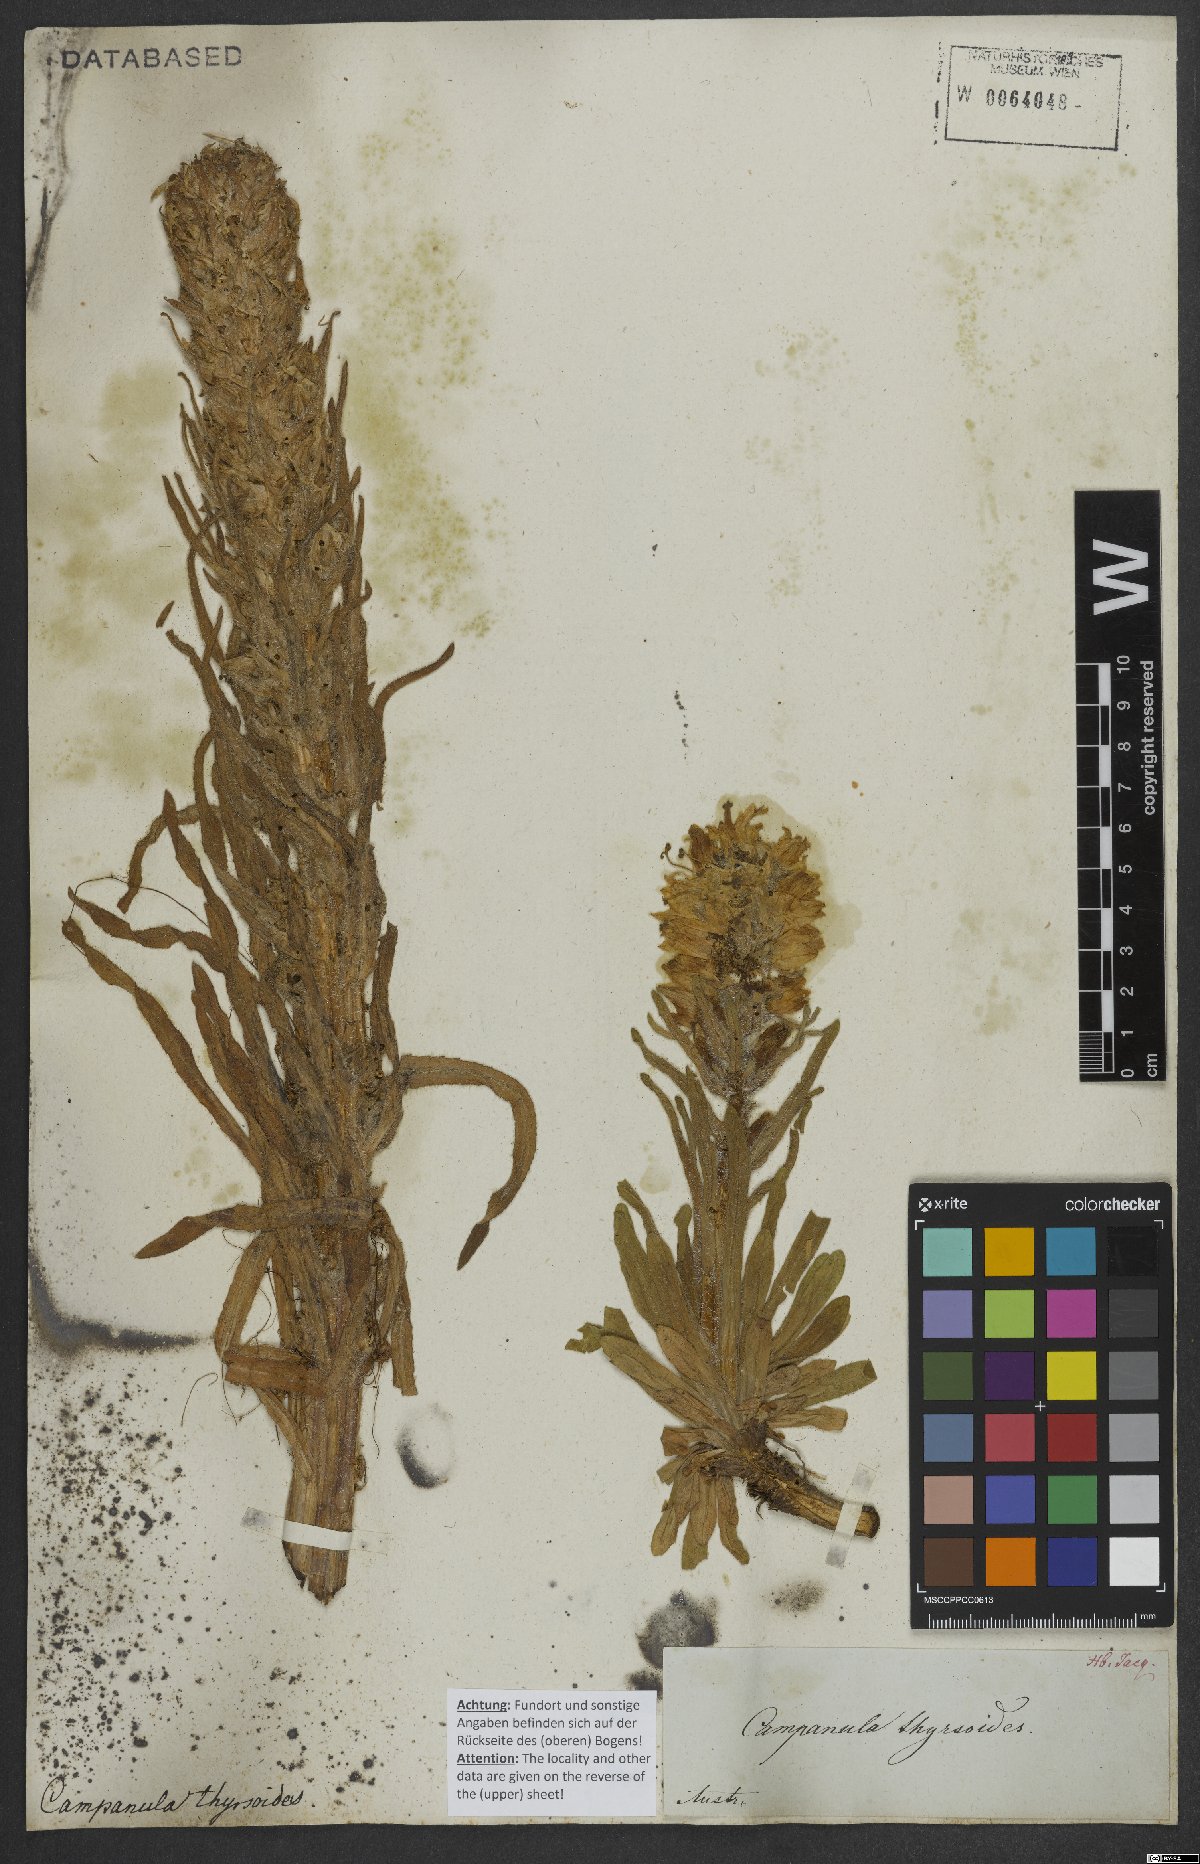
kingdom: Plantae
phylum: Tracheophyta
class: Magnoliopsida
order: Asterales
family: Campanulaceae
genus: Campanula
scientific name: Campanula thyrsoides
